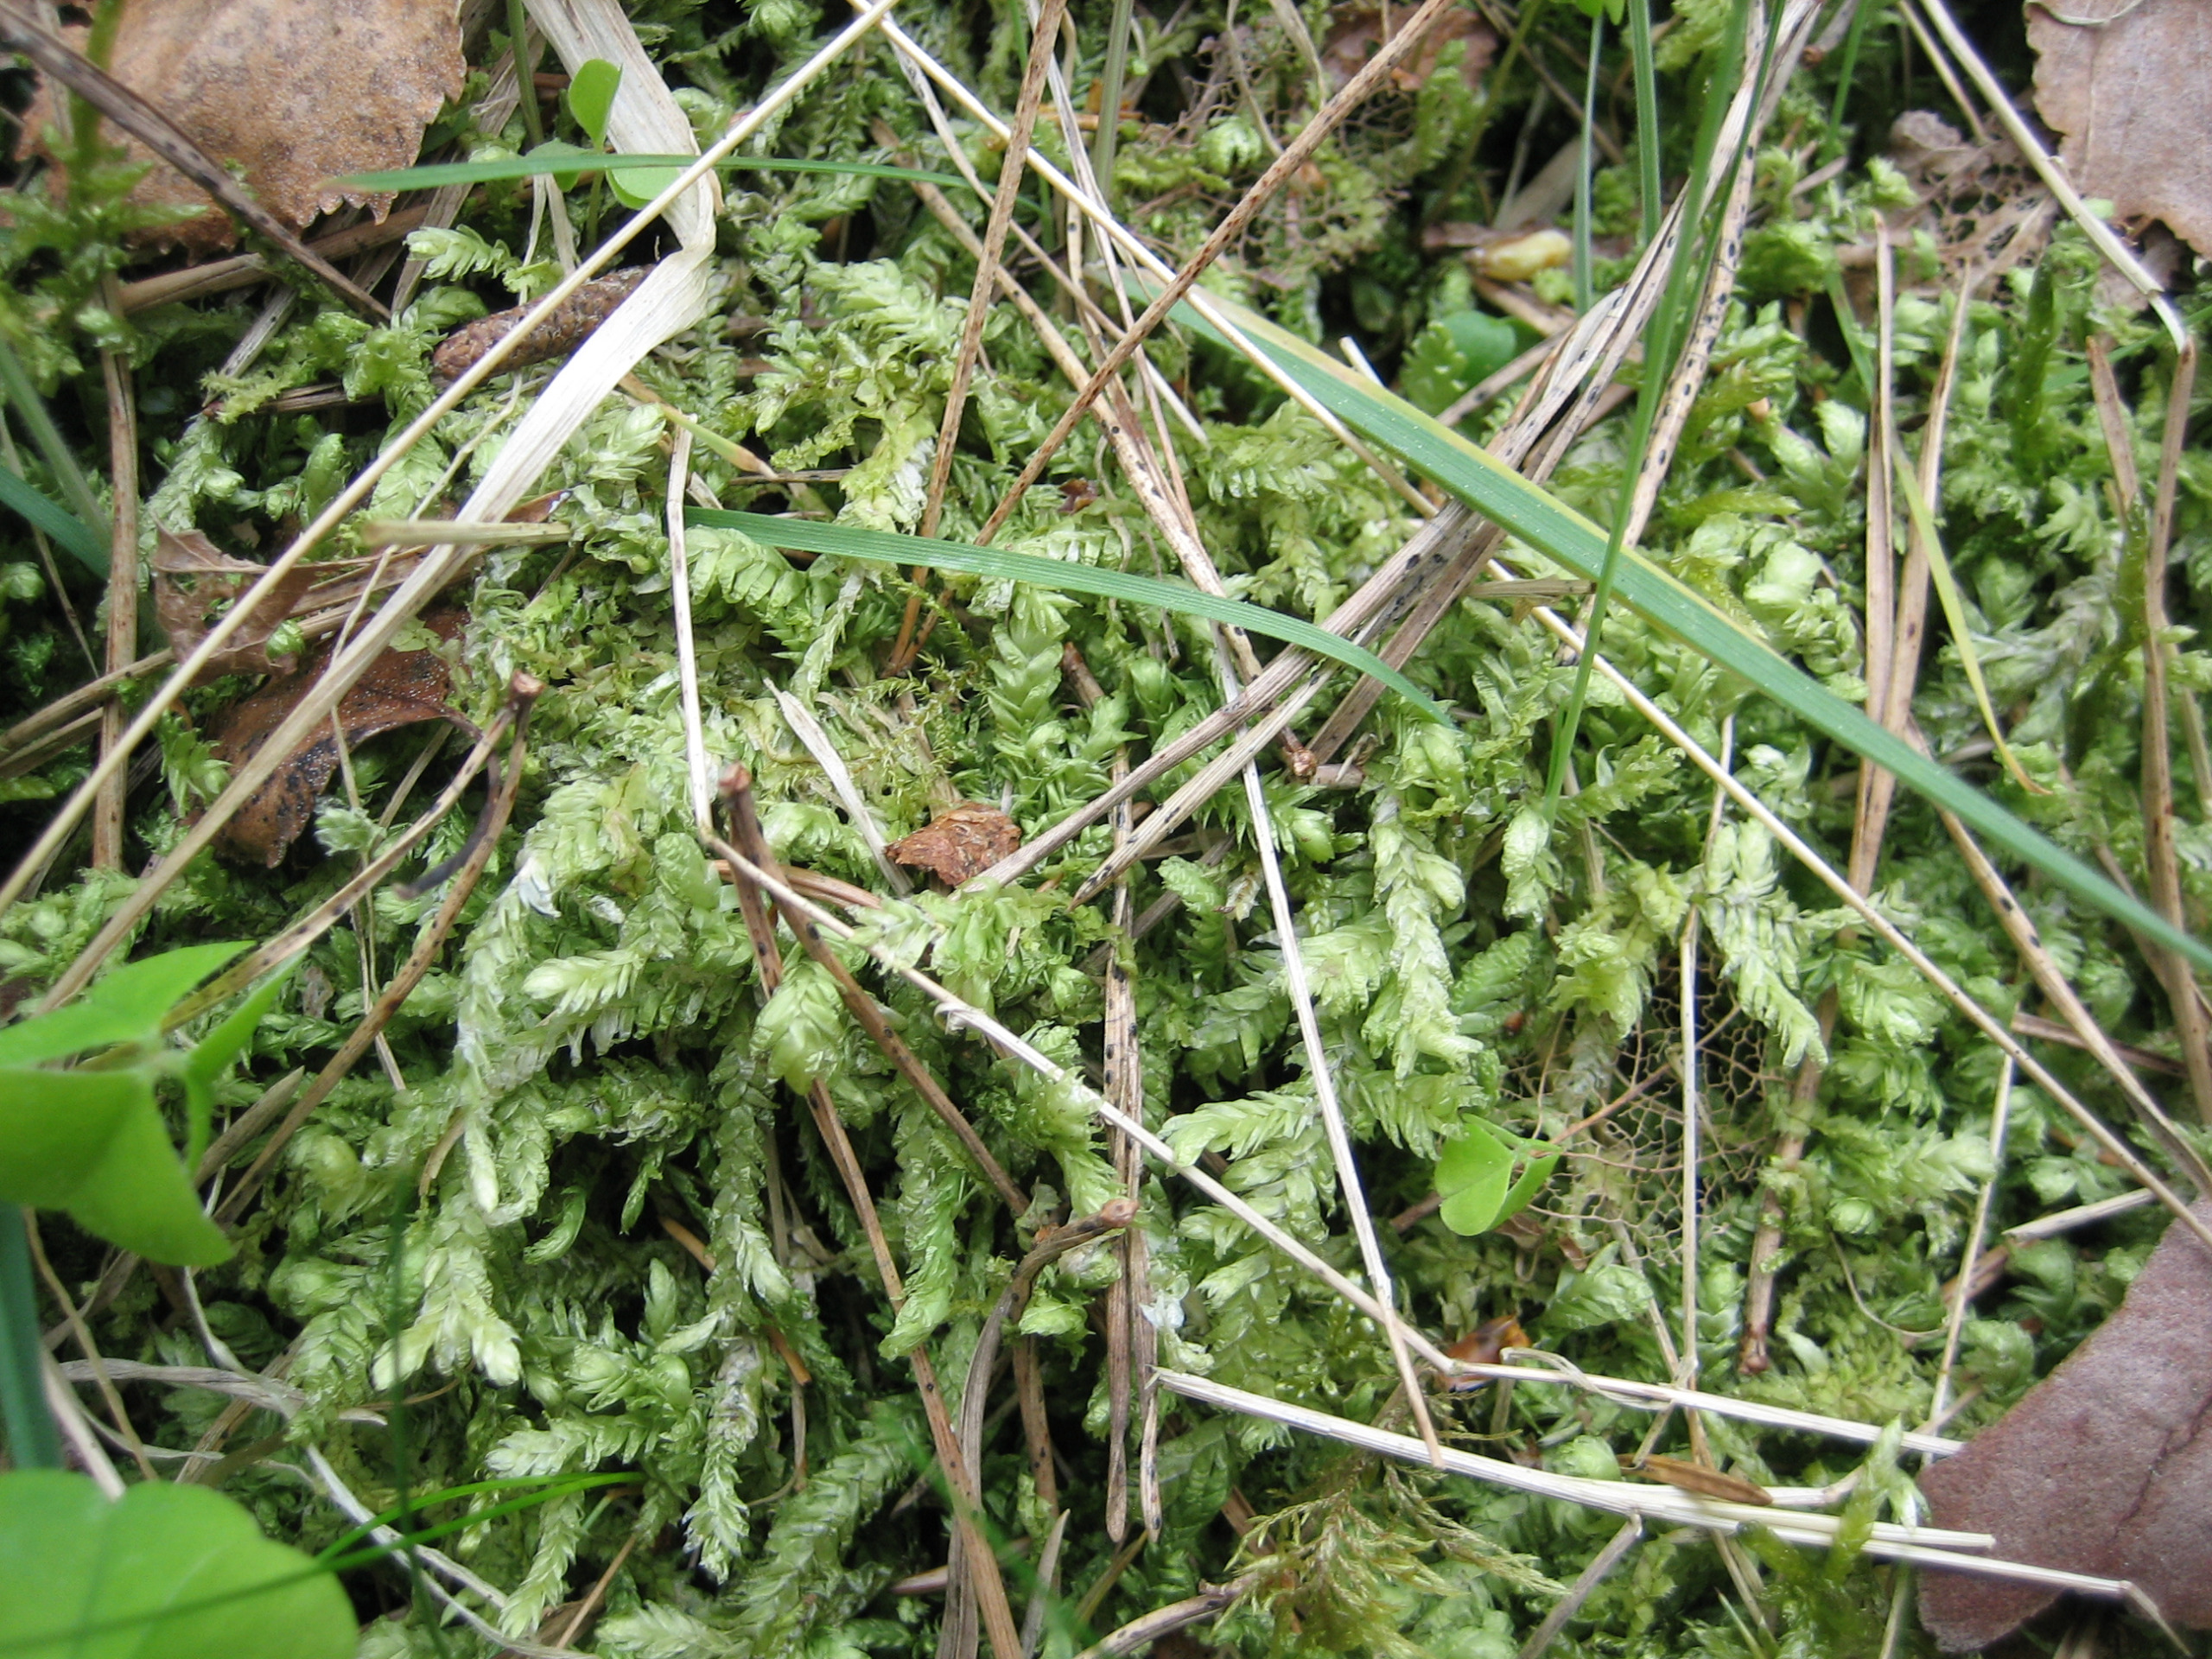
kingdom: Plantae
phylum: Bryophyta
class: Bryopsida
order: Hypnales
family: Plagiotheciaceae
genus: Plagiothecium
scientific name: Plagiothecium undulatum
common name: Bølget tæppemos
